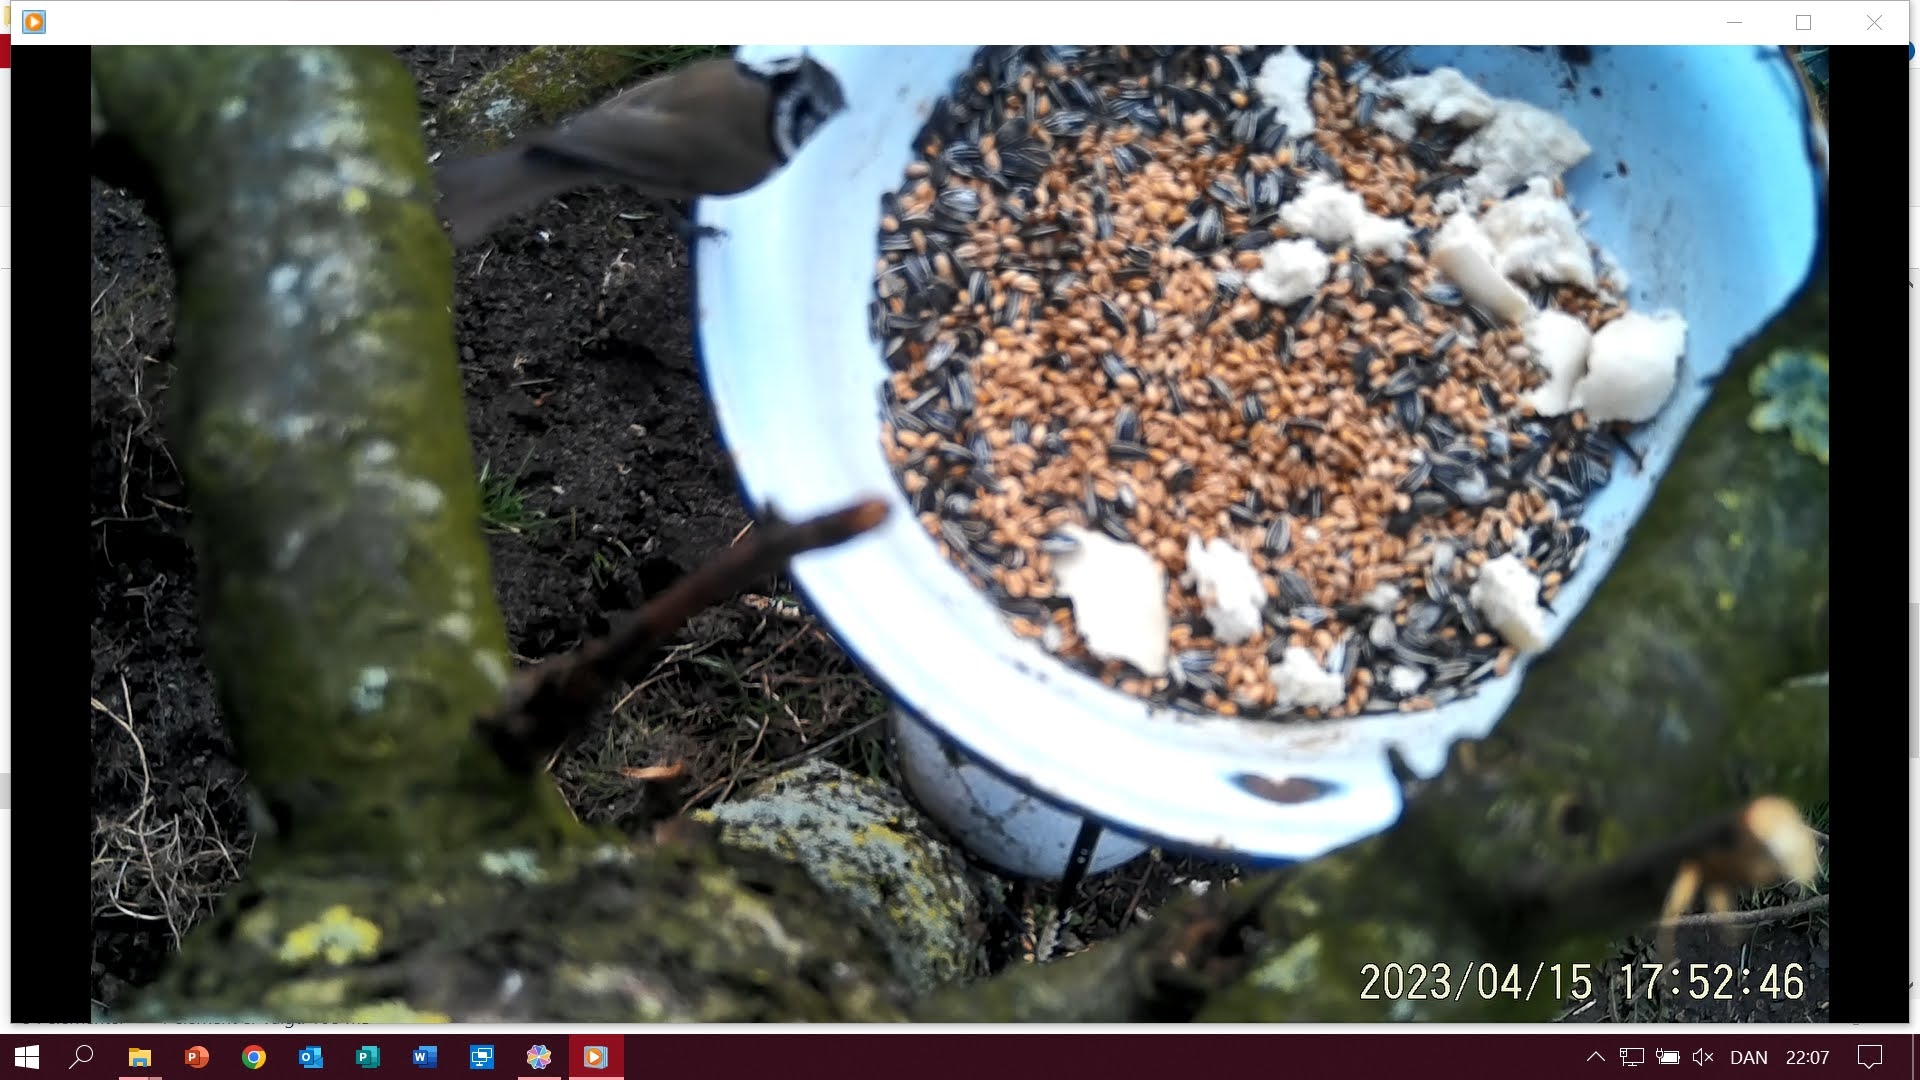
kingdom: Animalia
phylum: Chordata
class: Aves
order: Passeriformes
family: Paridae
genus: Lophophanes
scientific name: Lophophanes cristatus
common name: Topmejse
